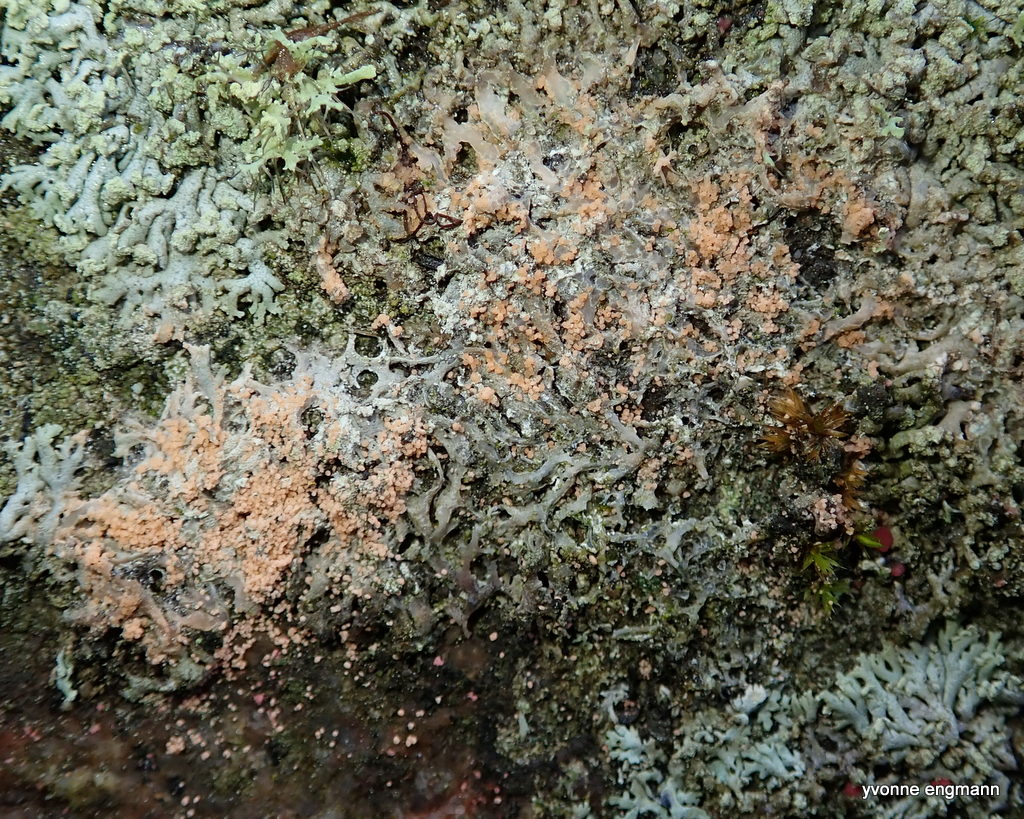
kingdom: Fungi
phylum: Basidiomycota
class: Agaricomycetes
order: Corticiales
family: Corticiaceae
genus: Erythricium
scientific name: Erythricium aurantiacum
